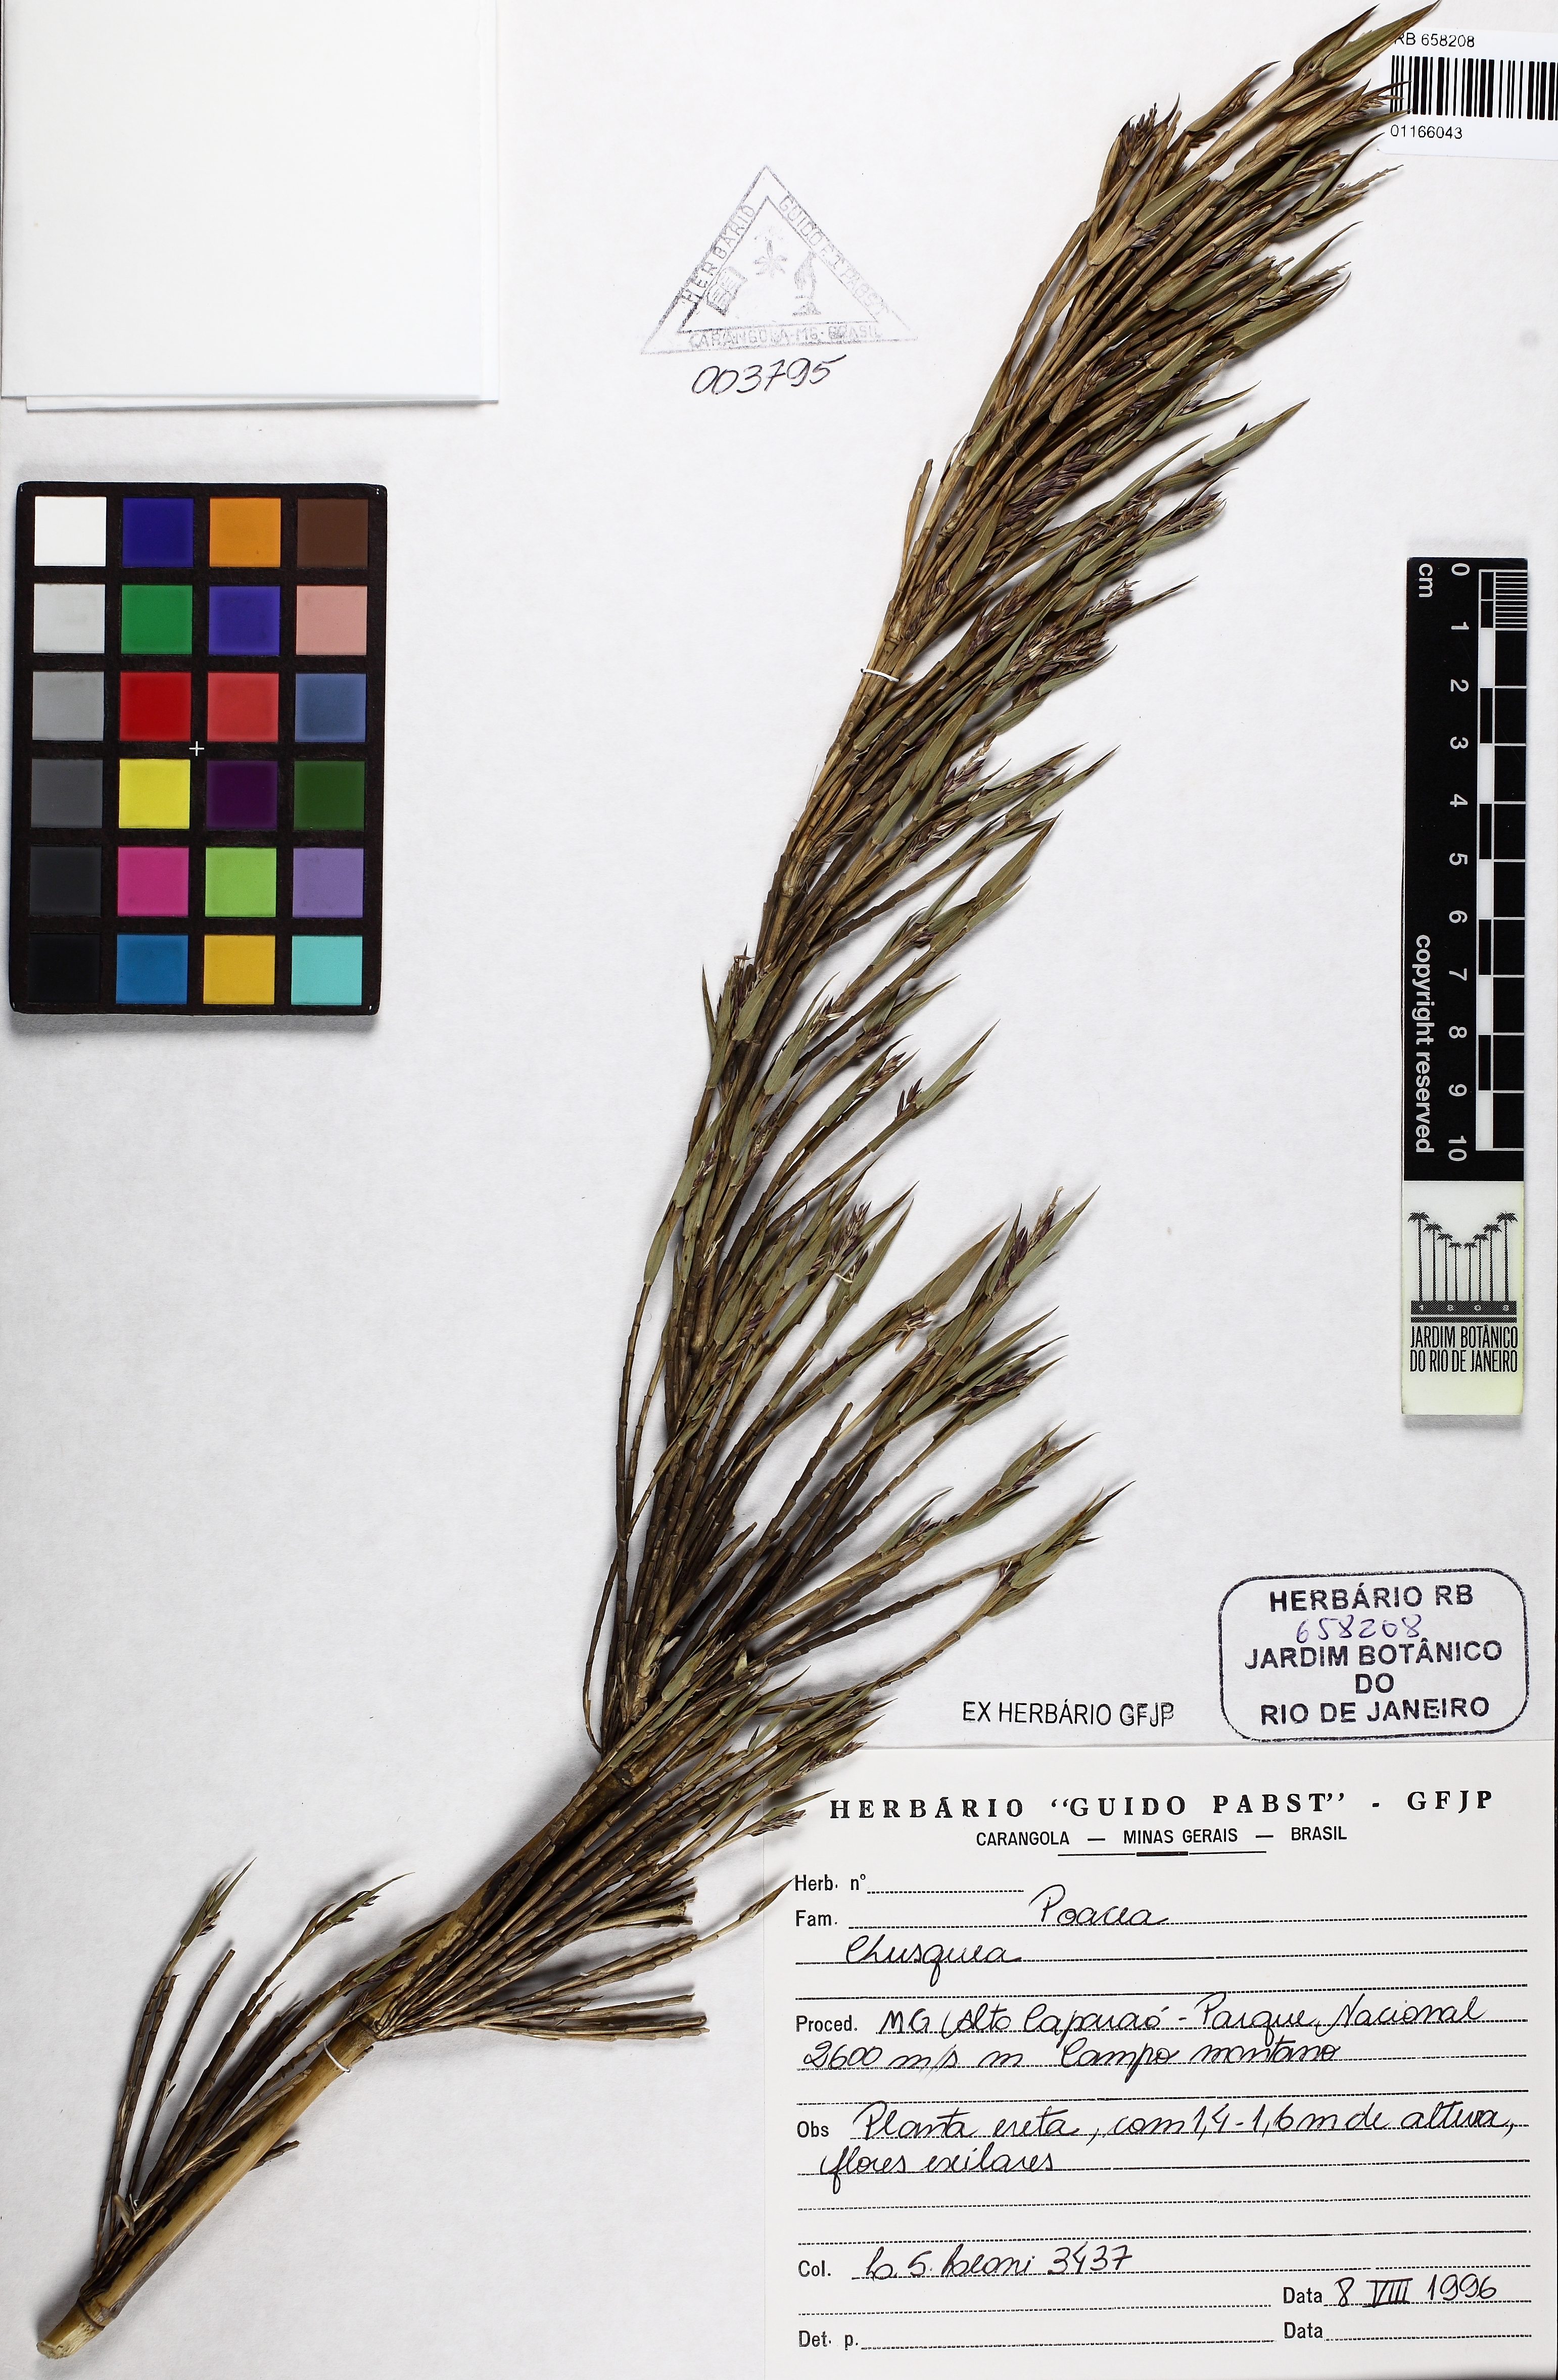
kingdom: Plantae
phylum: Tracheophyta
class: Liliopsida
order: Poales
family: Poaceae
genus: Chusquea
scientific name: Chusquea
